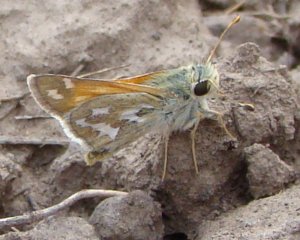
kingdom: Animalia
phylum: Arthropoda
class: Insecta
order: Lepidoptera
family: Hesperiidae
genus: Hesperia
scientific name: Hesperia juba
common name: Juba Skipper
